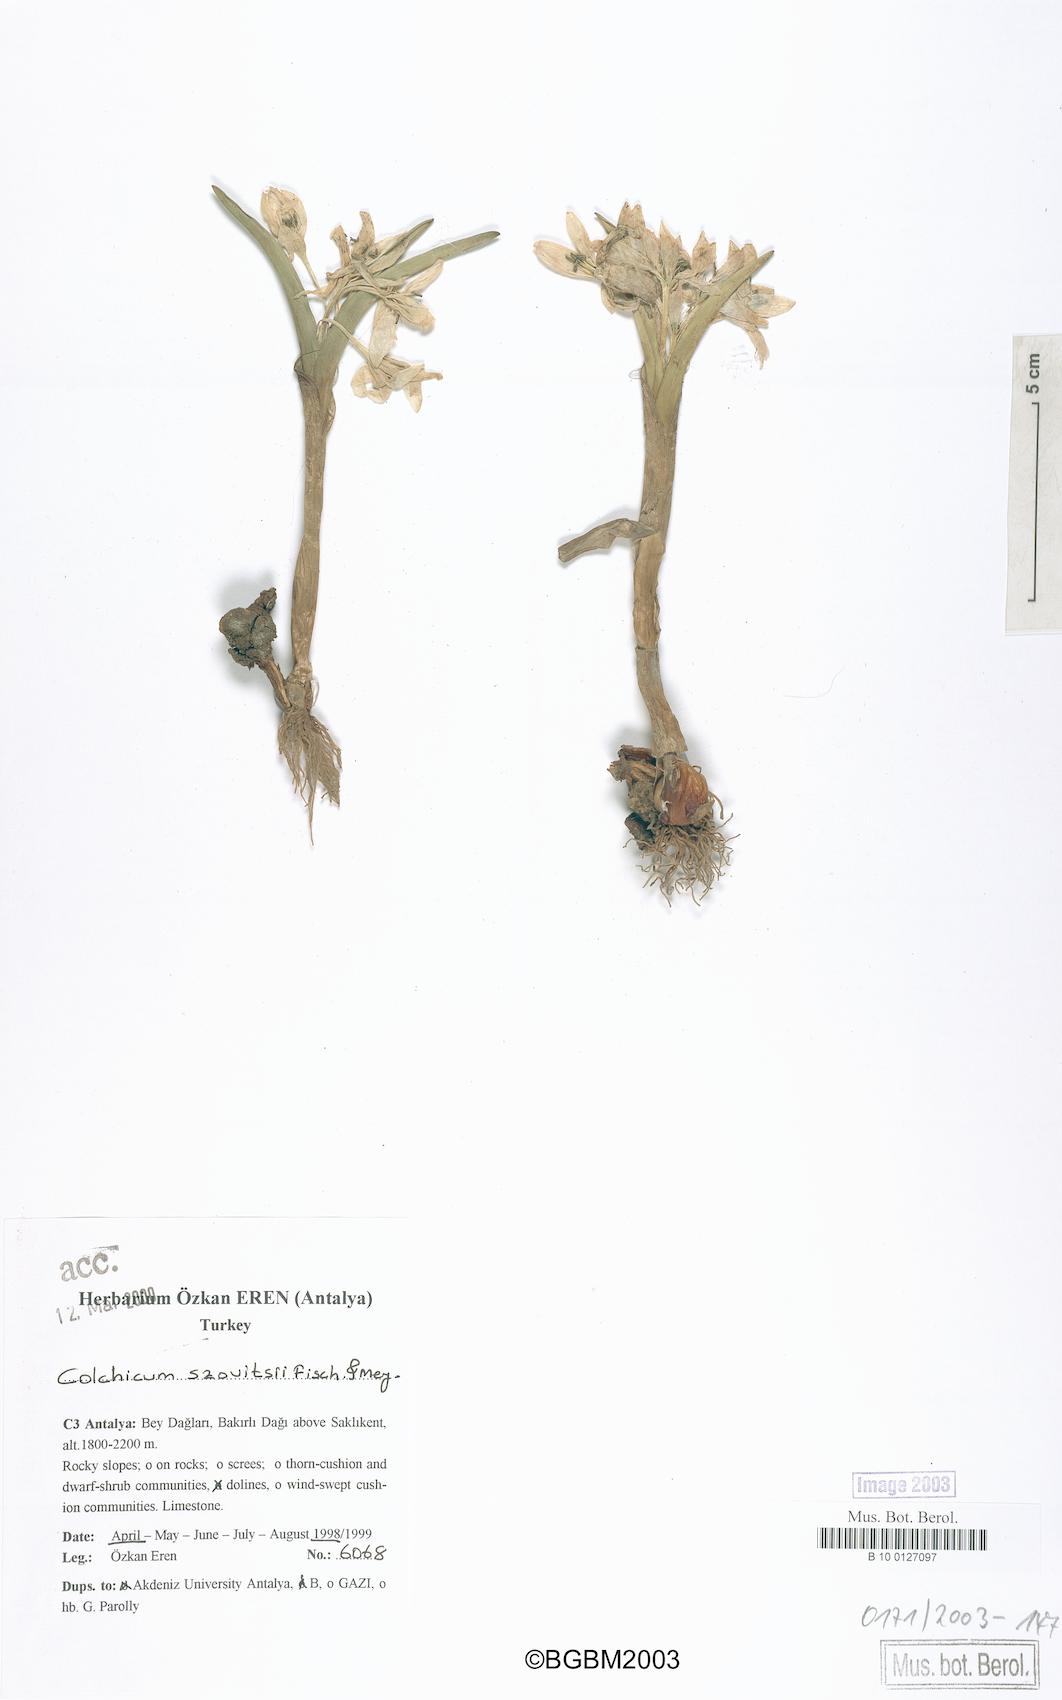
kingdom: Plantae
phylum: Tracheophyta
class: Liliopsida
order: Liliales
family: Colchicaceae
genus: Colchicum
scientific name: Colchicum szovitsii
